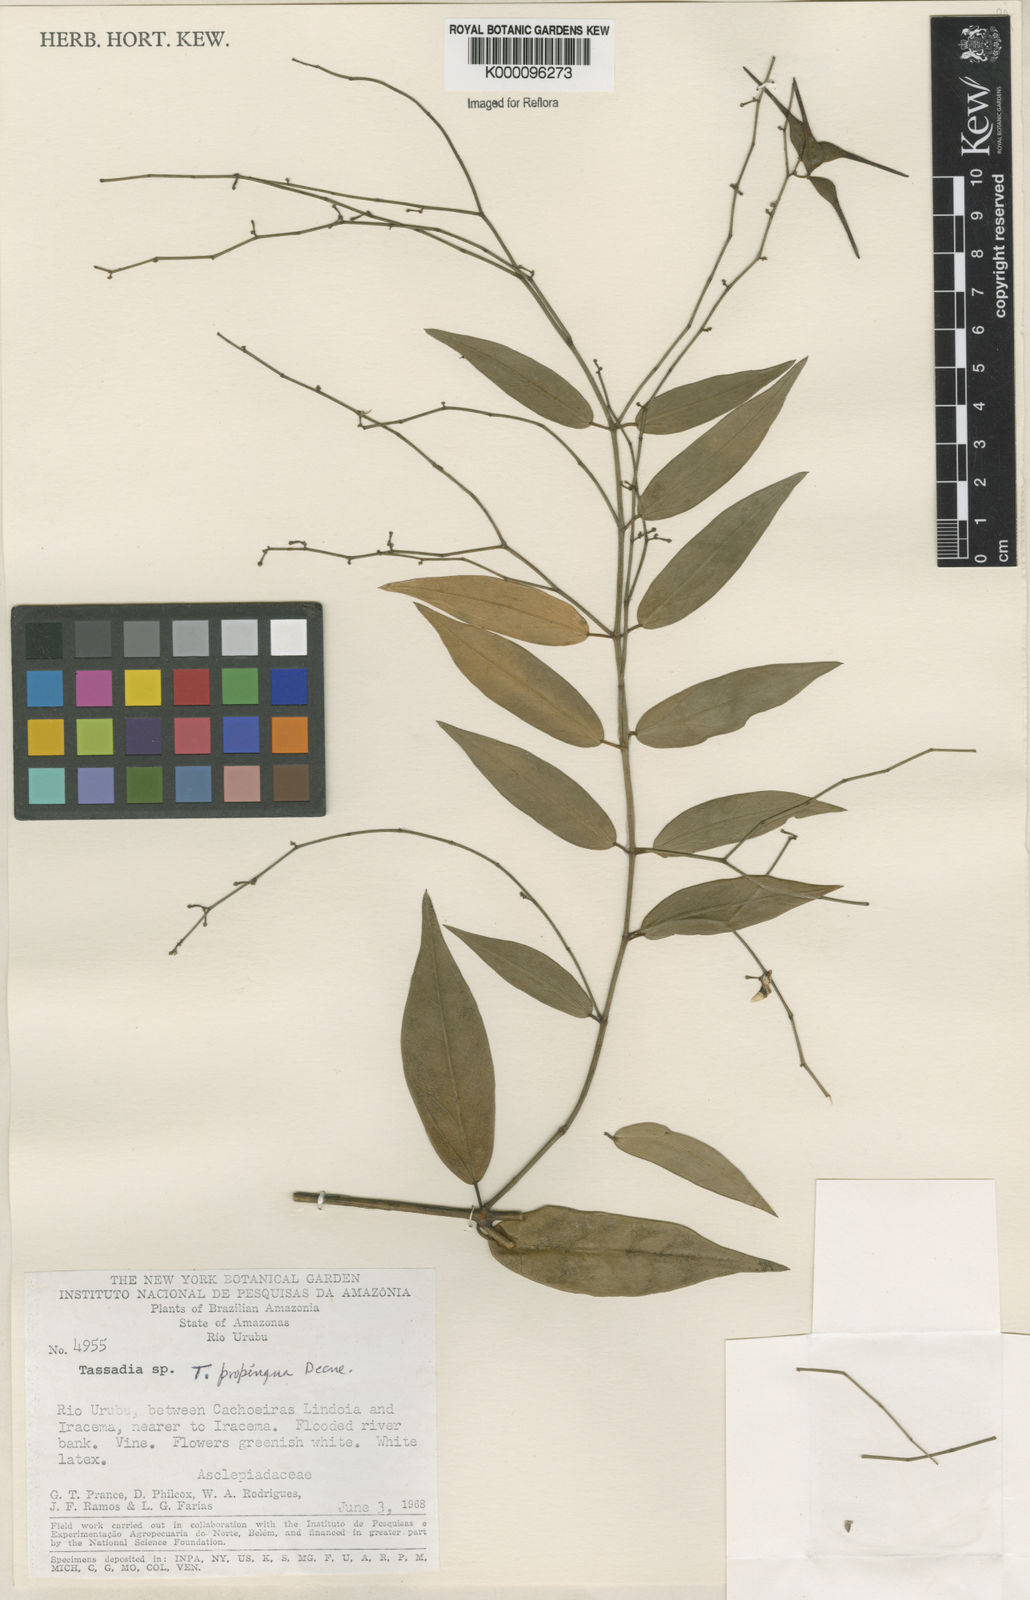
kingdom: Plantae
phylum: Tracheophyta
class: Magnoliopsida
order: Gentianales
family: Apocynaceae
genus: Tassadia
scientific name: Tassadia propinqua
